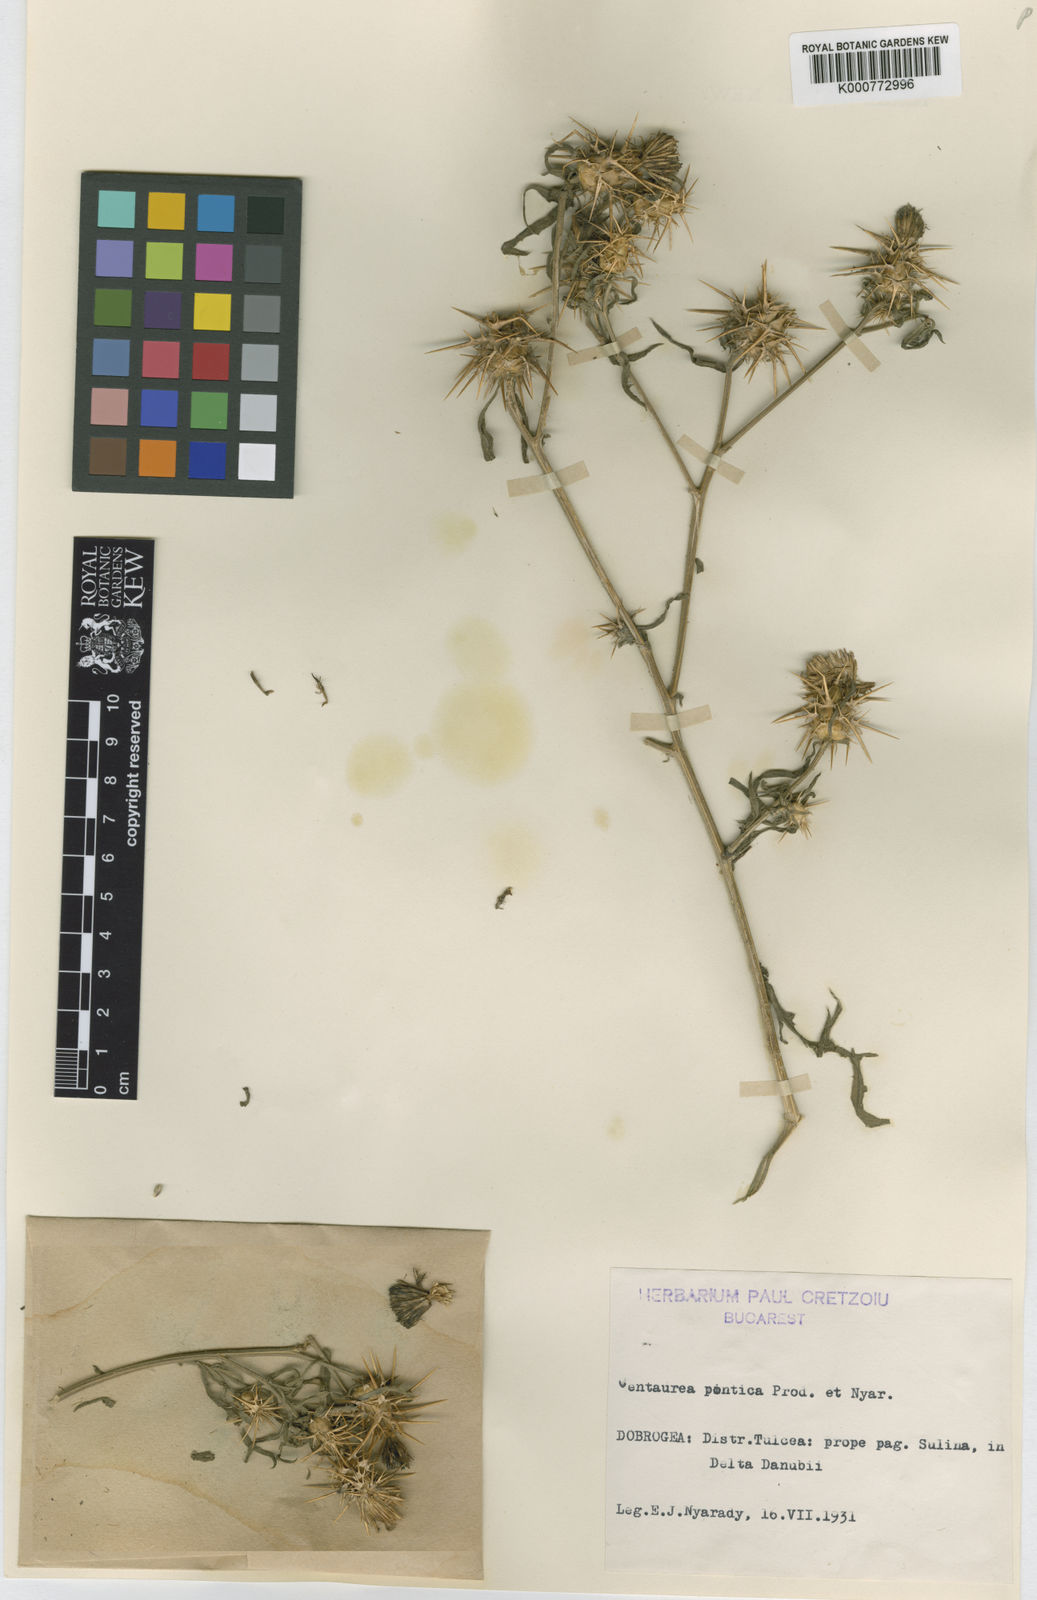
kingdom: Plantae
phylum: Tracheophyta
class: Magnoliopsida
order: Asterales
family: Asteraceae
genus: Centaurea
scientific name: Centaurea pontica
